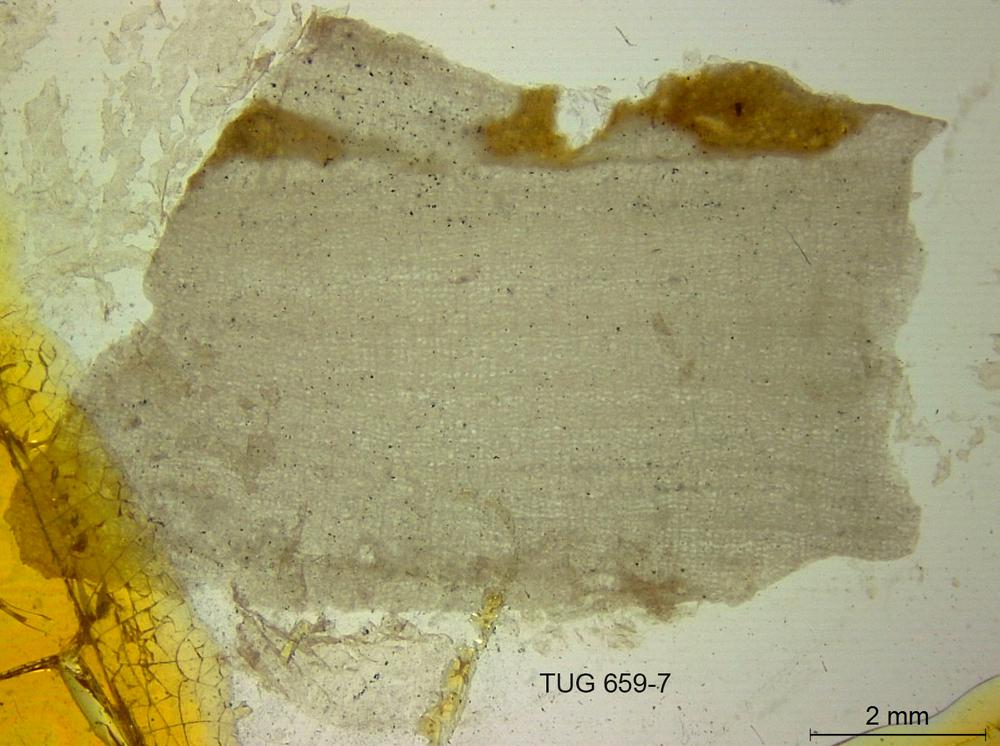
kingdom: Animalia
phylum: Porifera
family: Clathrodictyidae
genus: Clathrodictyon
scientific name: Clathrodictyon vesiculosum
